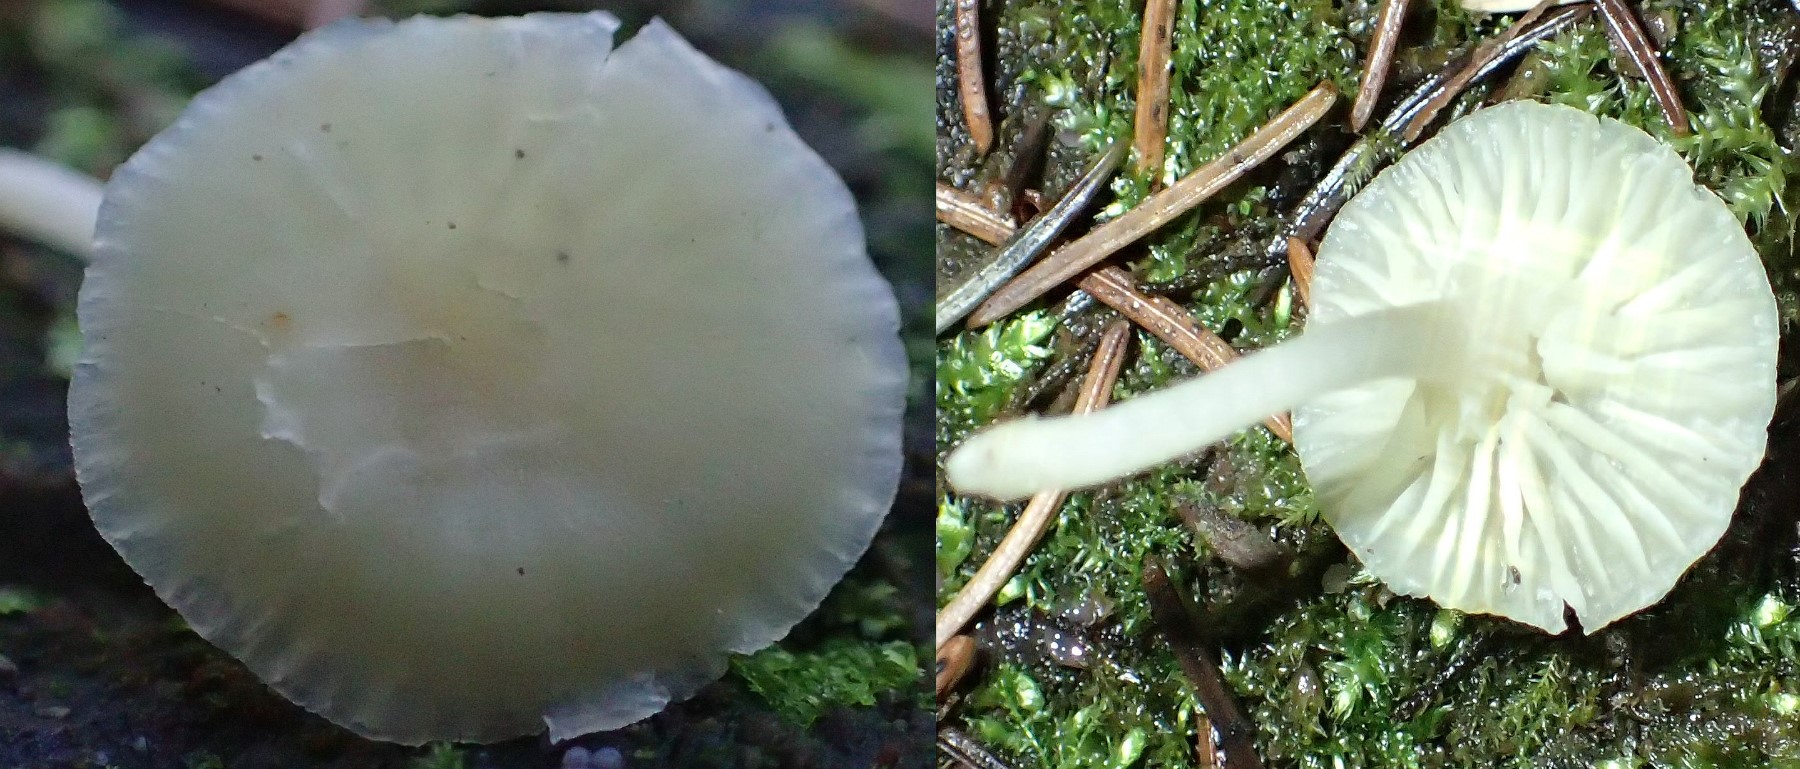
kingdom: Fungi
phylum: Basidiomycota
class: Agaricomycetes
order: Agaricales
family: Hygrophoraceae
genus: Chrysomphalina
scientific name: Chrysomphalina grossula
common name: stød-gyldenblad
